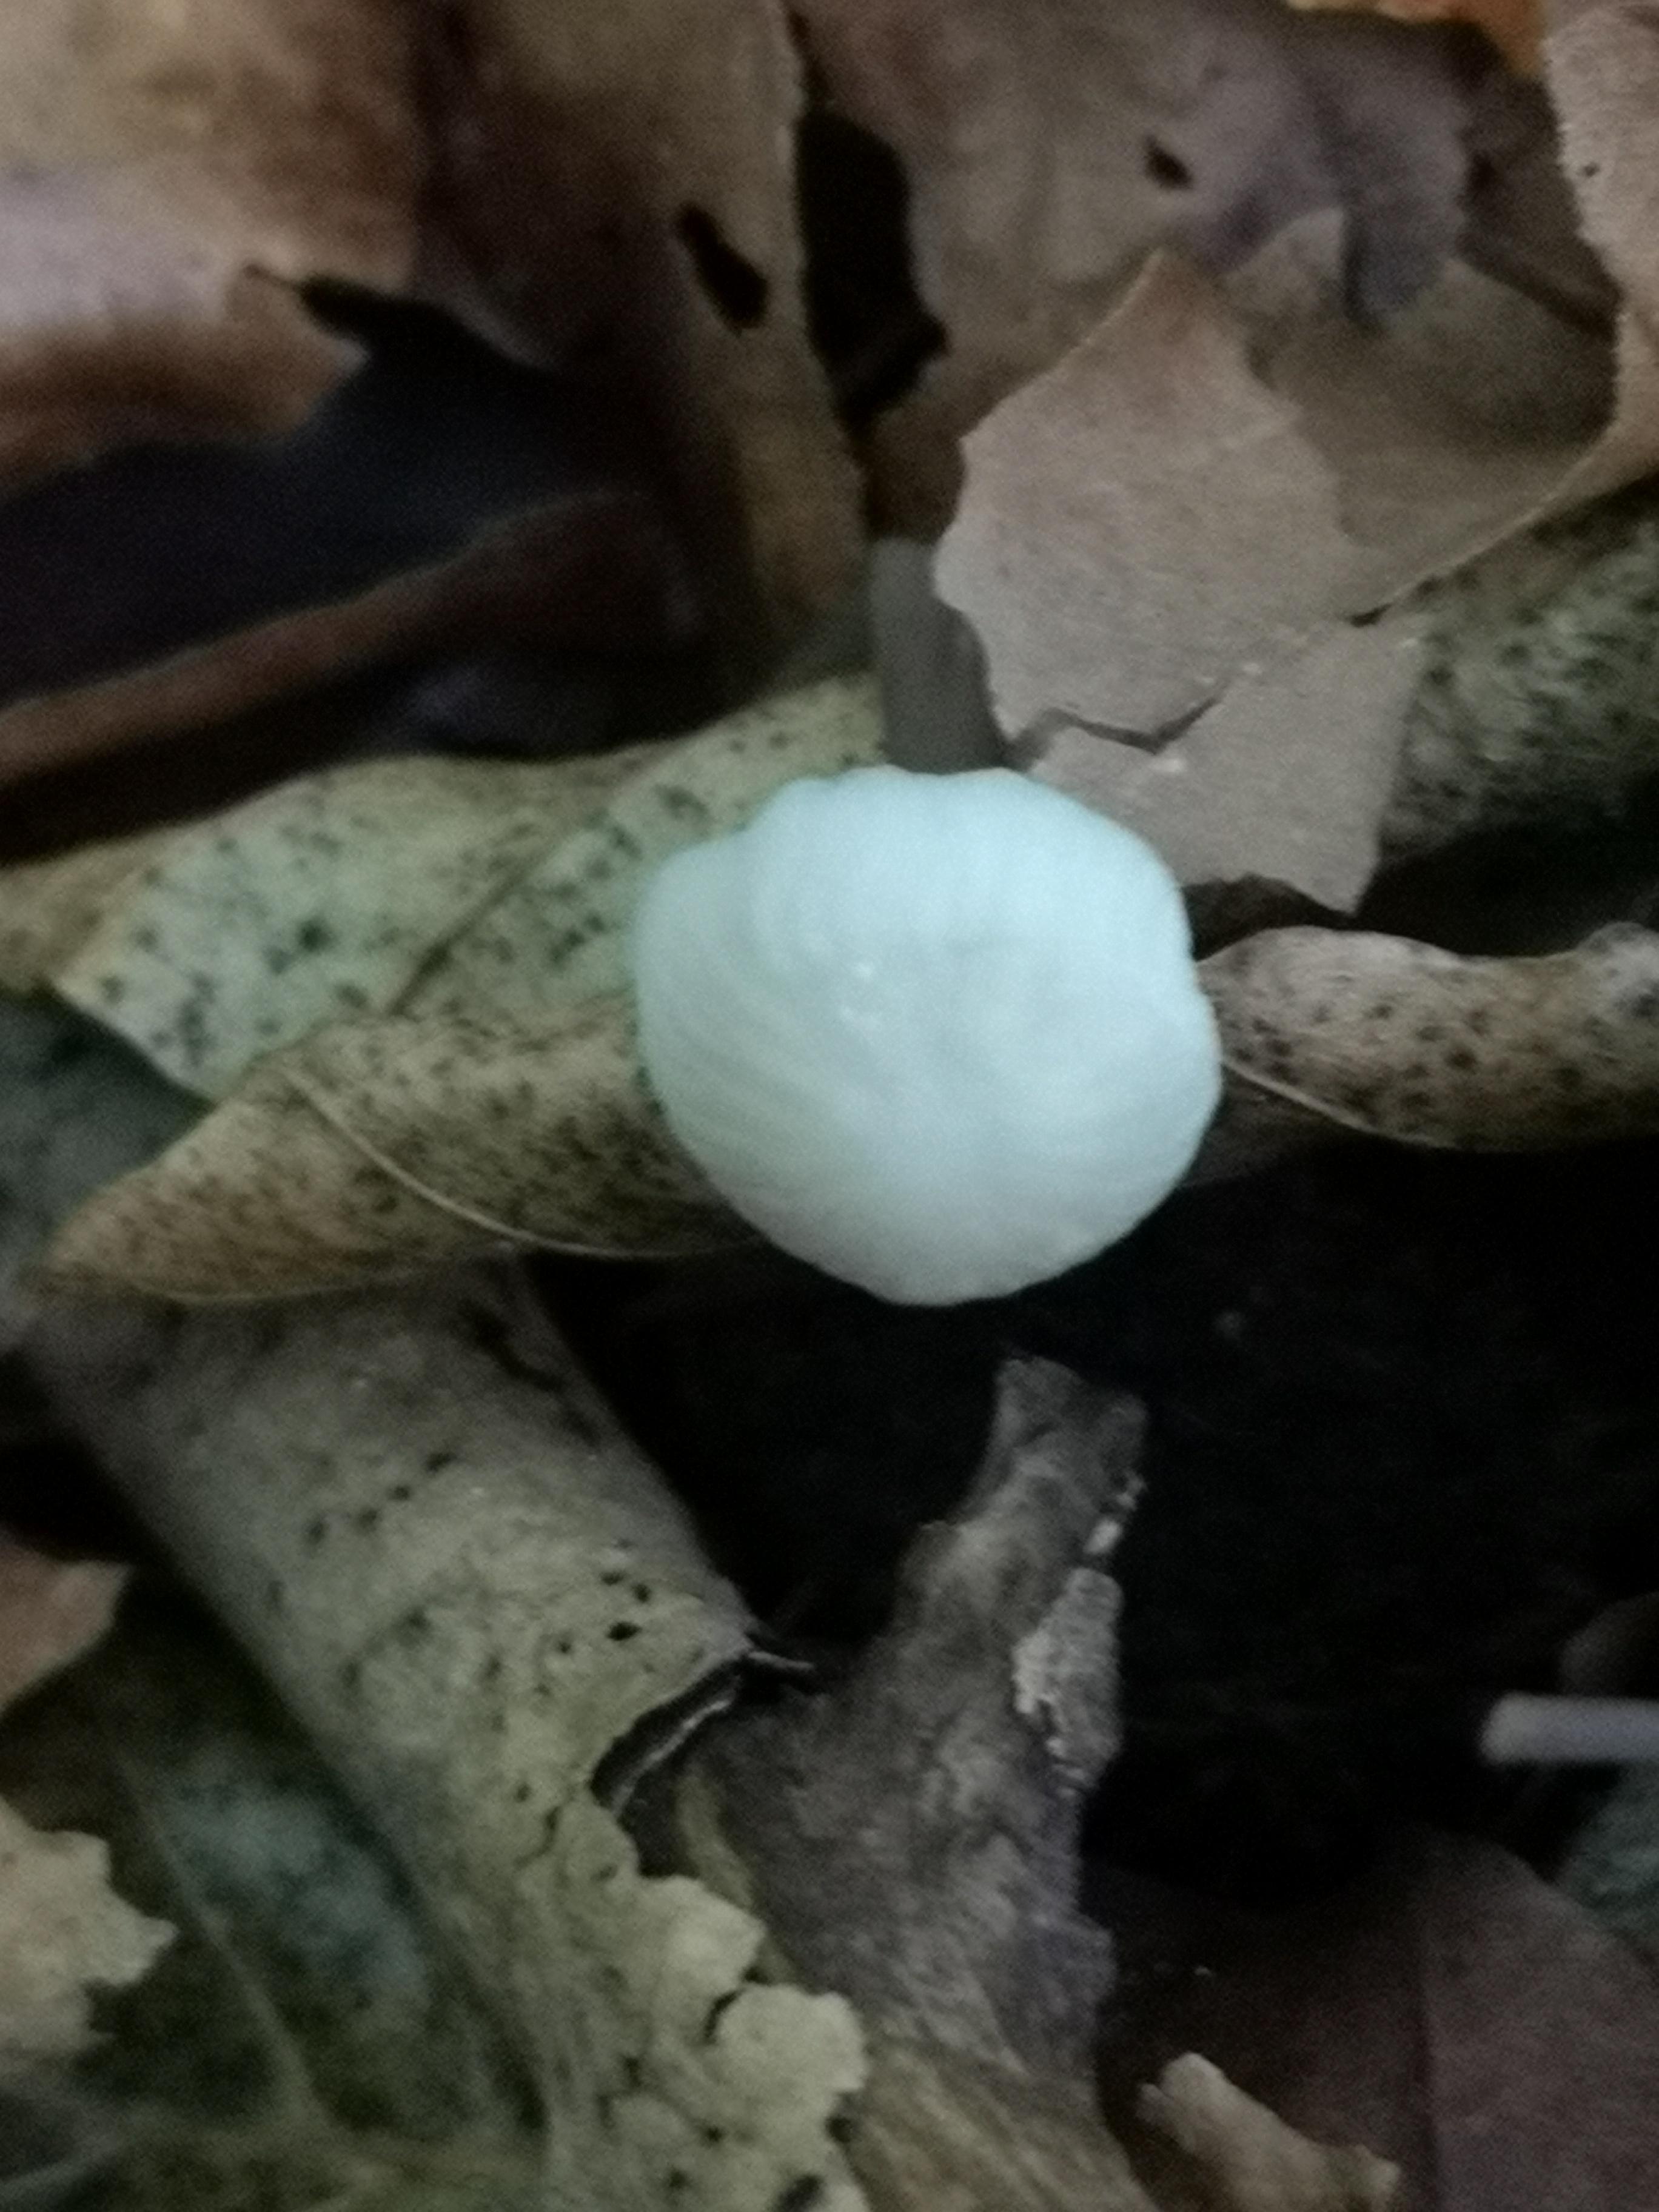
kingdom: Fungi
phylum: Basidiomycota
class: Agaricomycetes
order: Agaricales
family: Mycenaceae
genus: Mycena
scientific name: Mycena galopus
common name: hvidmælket huesvamp
